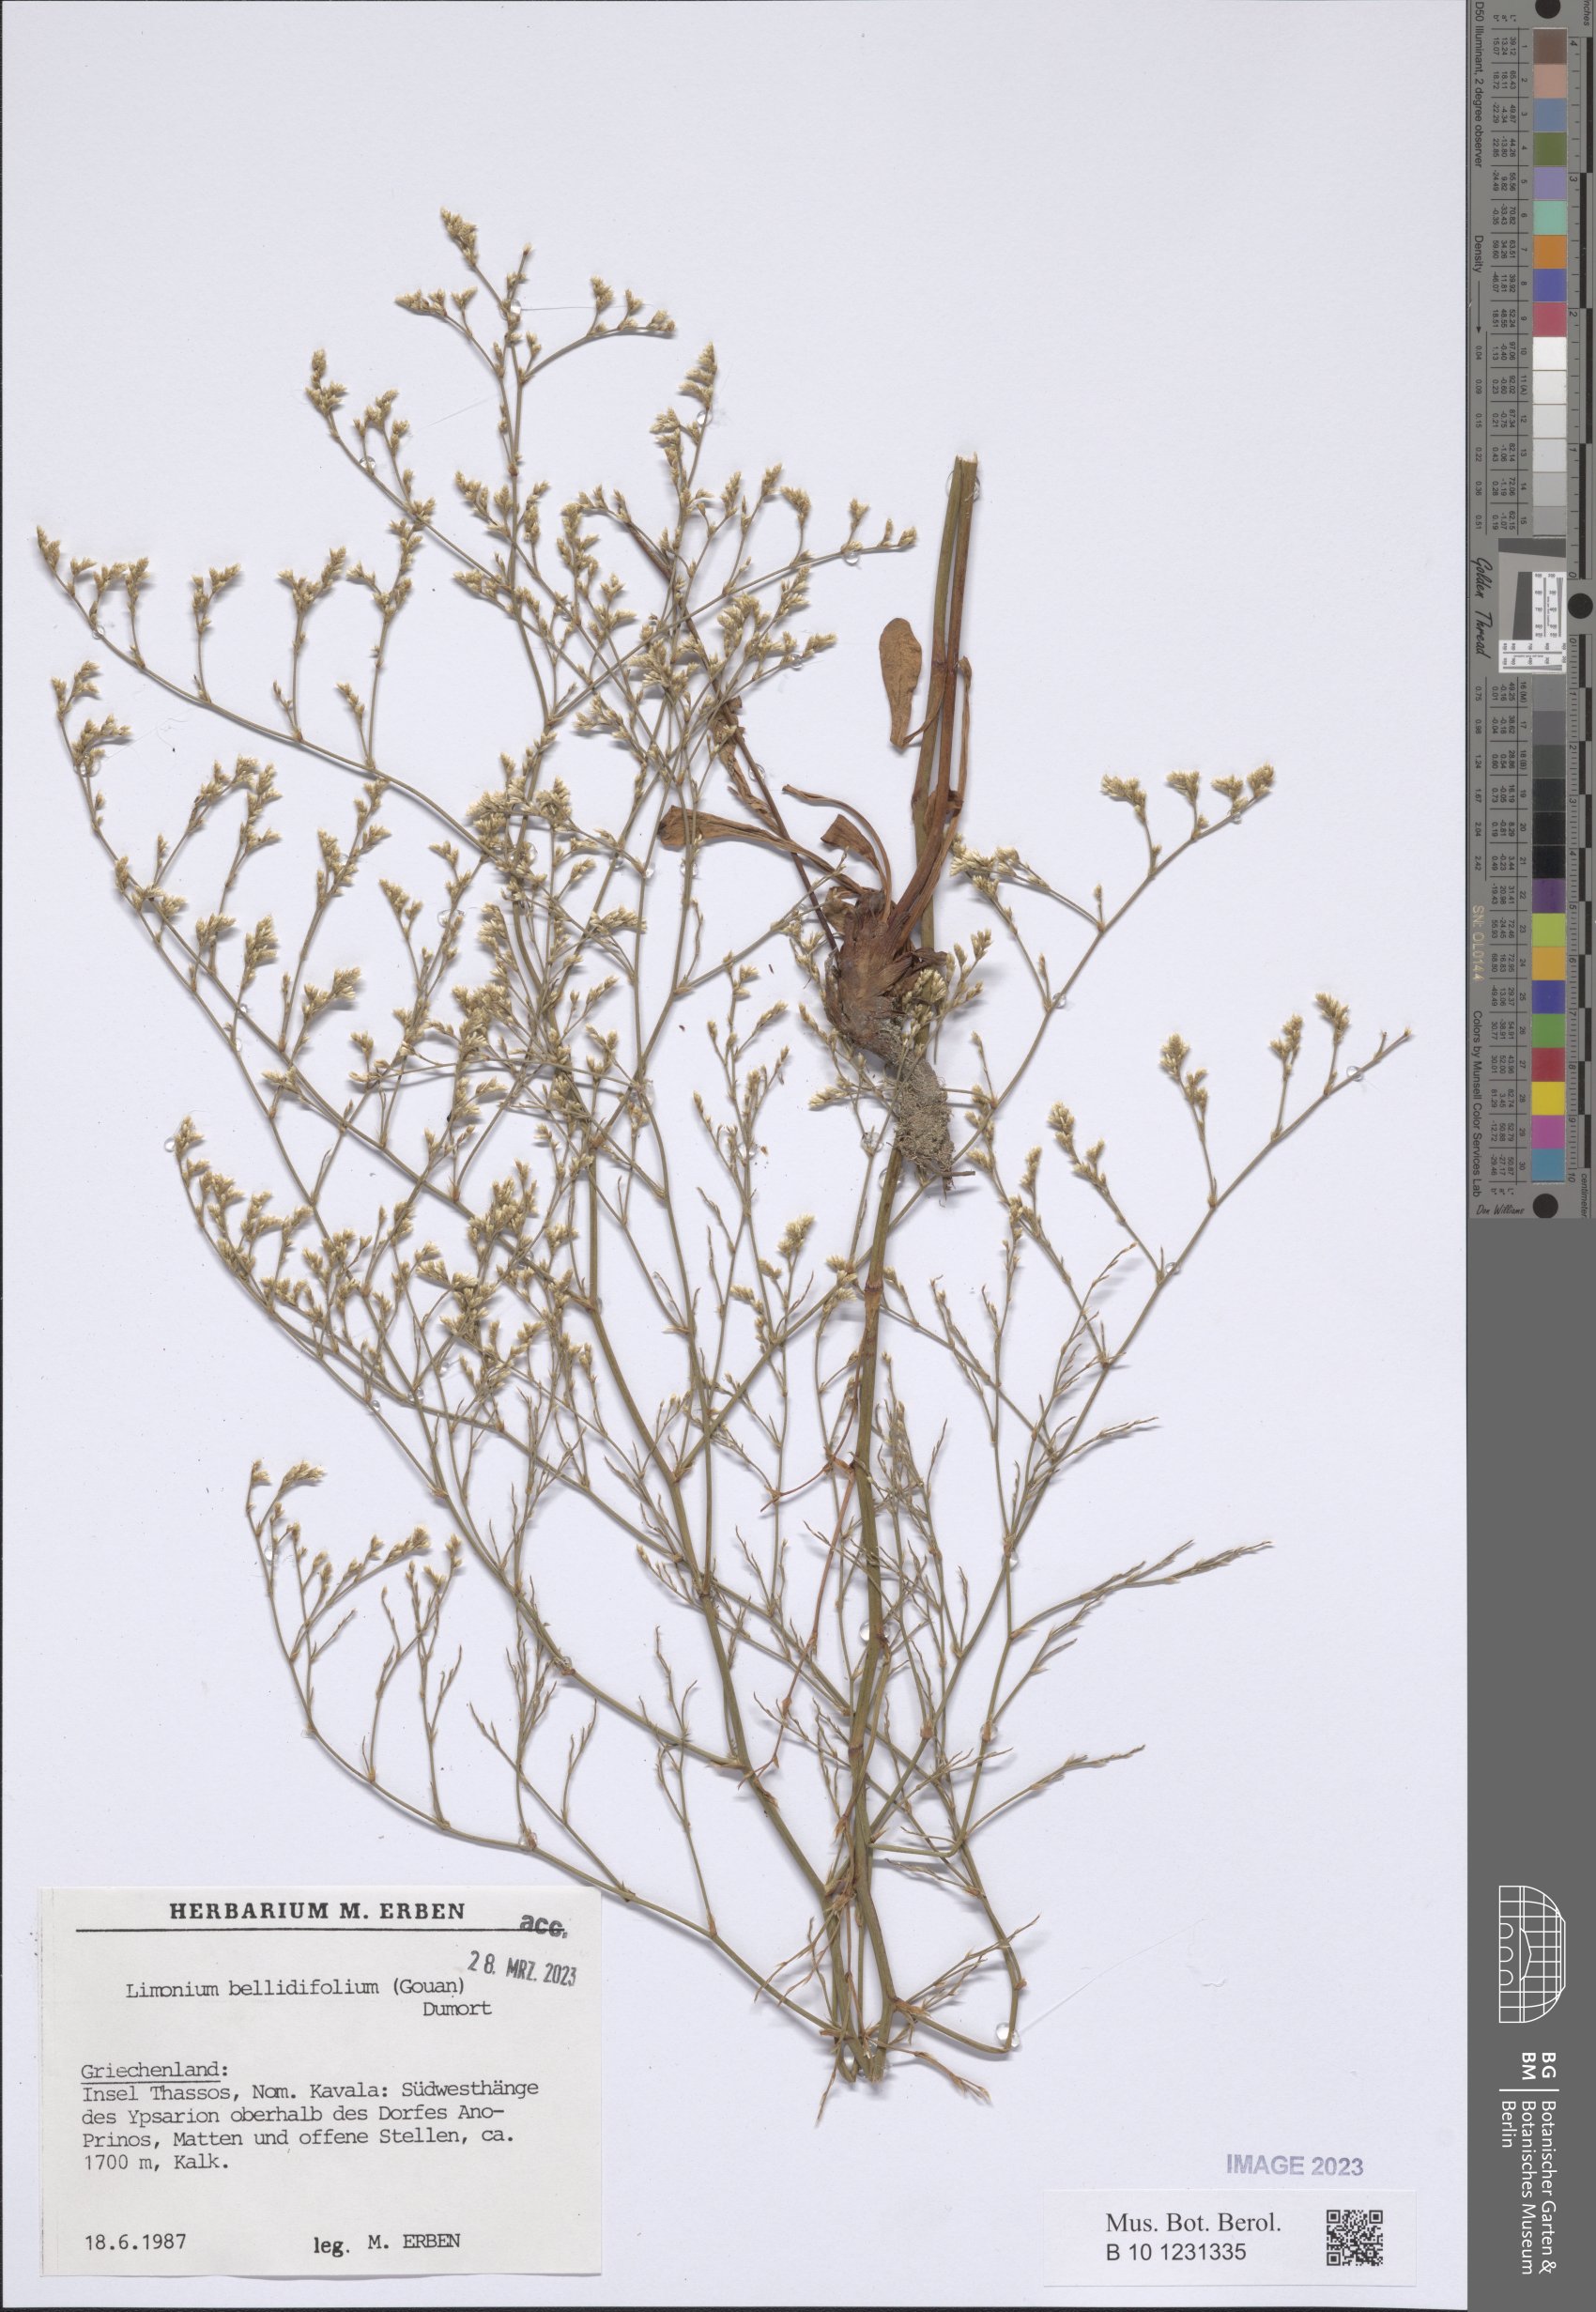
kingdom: Plantae
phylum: Tracheophyta
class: Magnoliopsida
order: Caryophyllales
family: Plumbaginaceae
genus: Limonium
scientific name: Limonium bellidifolium
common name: Matted sea-lavender
